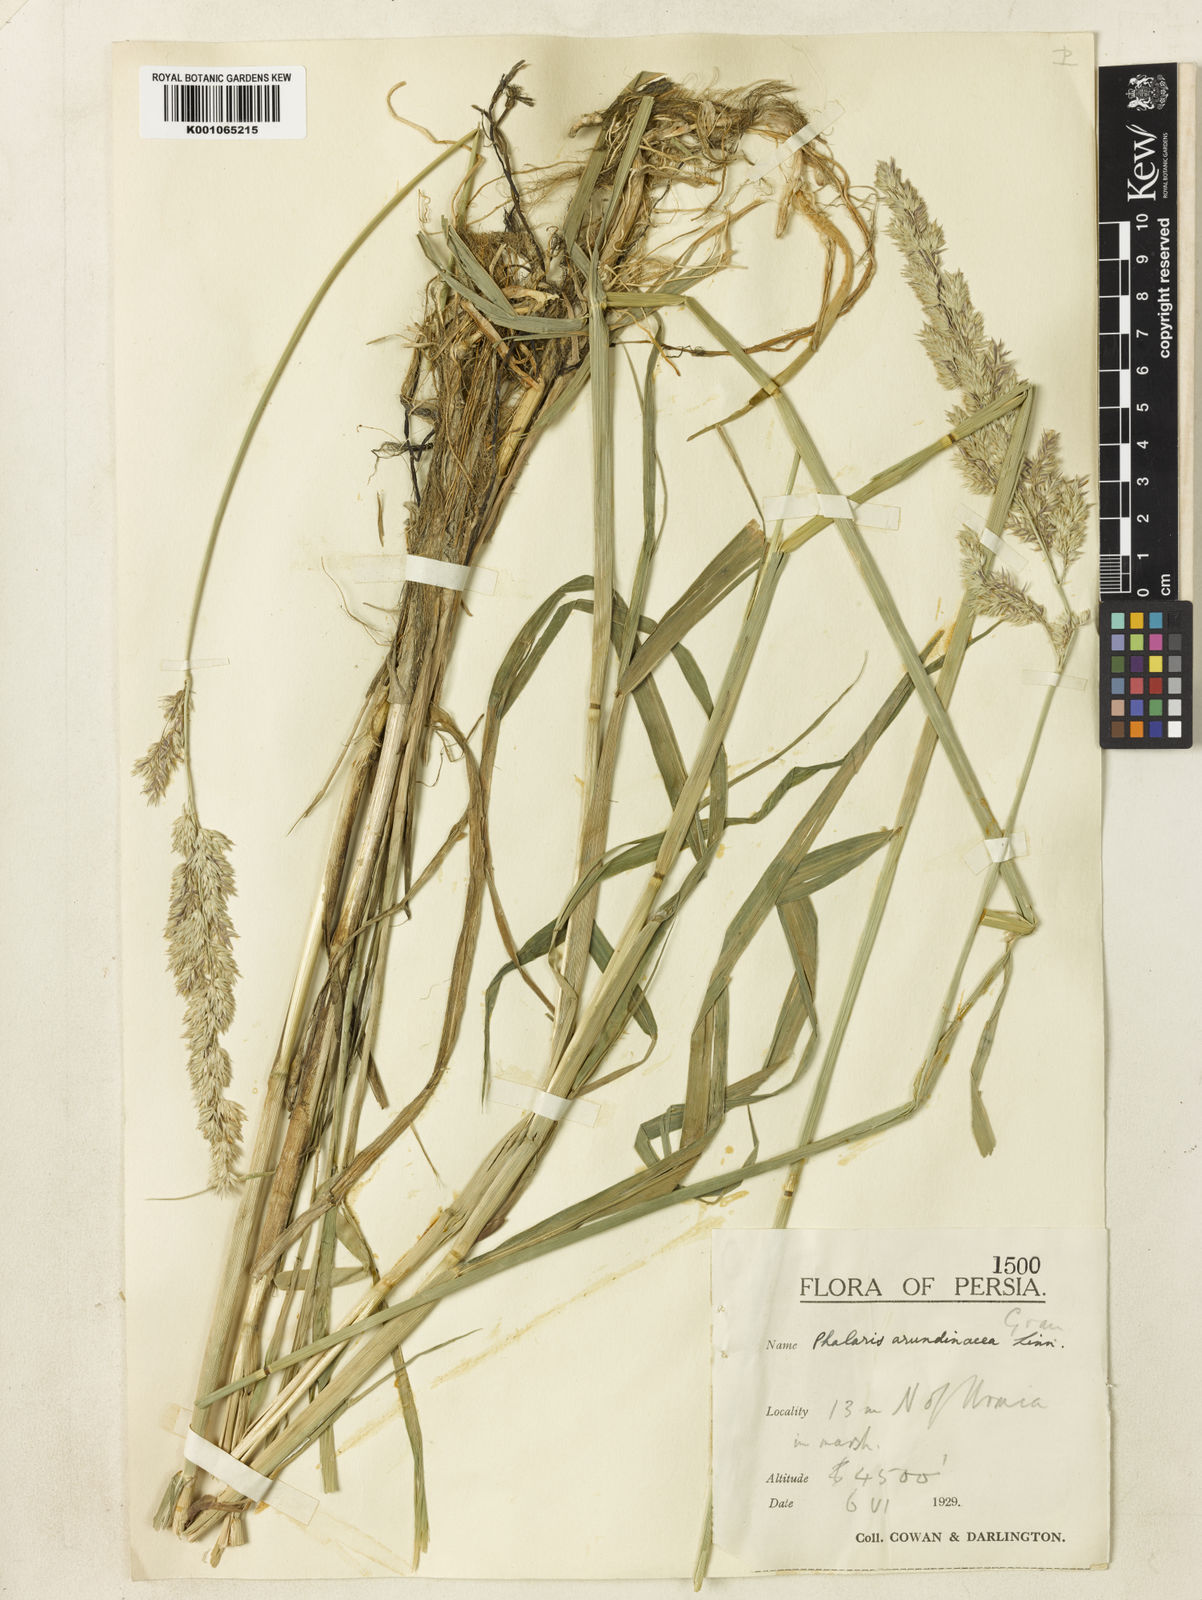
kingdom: Plantae
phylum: Tracheophyta
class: Liliopsida
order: Poales
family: Poaceae
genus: Phalaris
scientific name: Phalaris arundinacea
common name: Reed canary-grass
